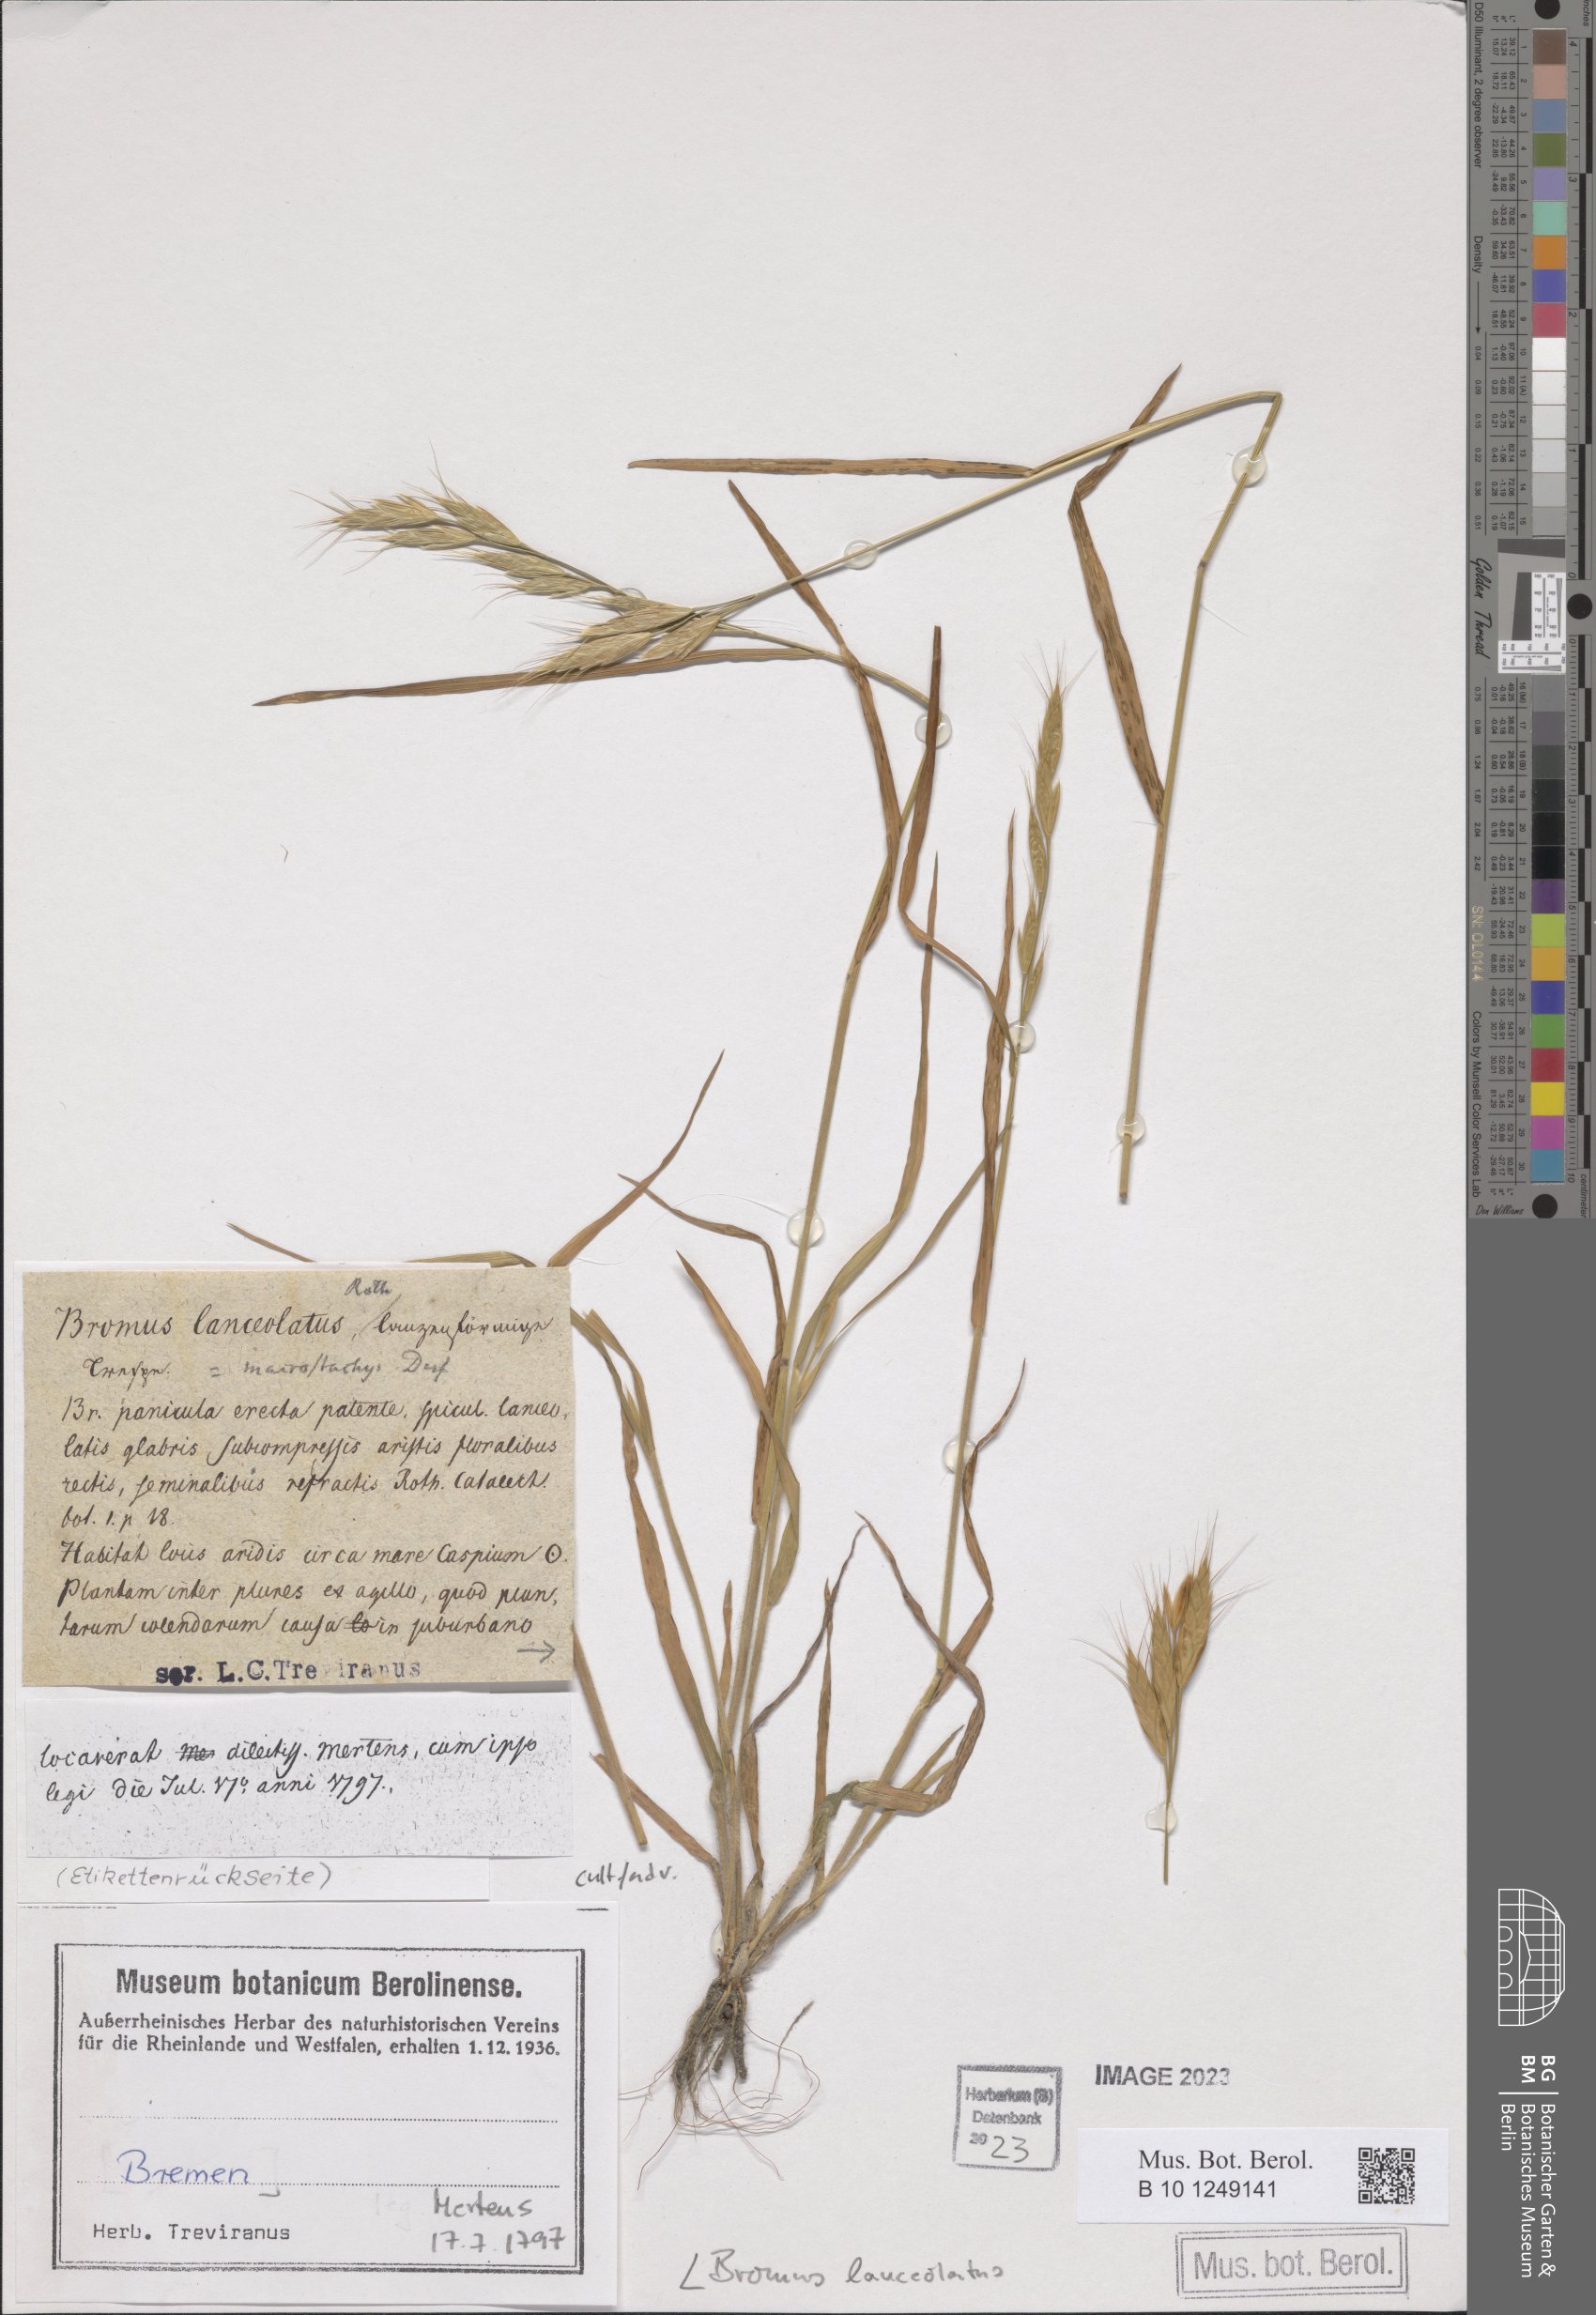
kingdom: Plantae
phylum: Tracheophyta
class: Liliopsida
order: Poales
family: Poaceae
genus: Bromus
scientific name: Bromus lanceolatus
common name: Mediterranean brome
